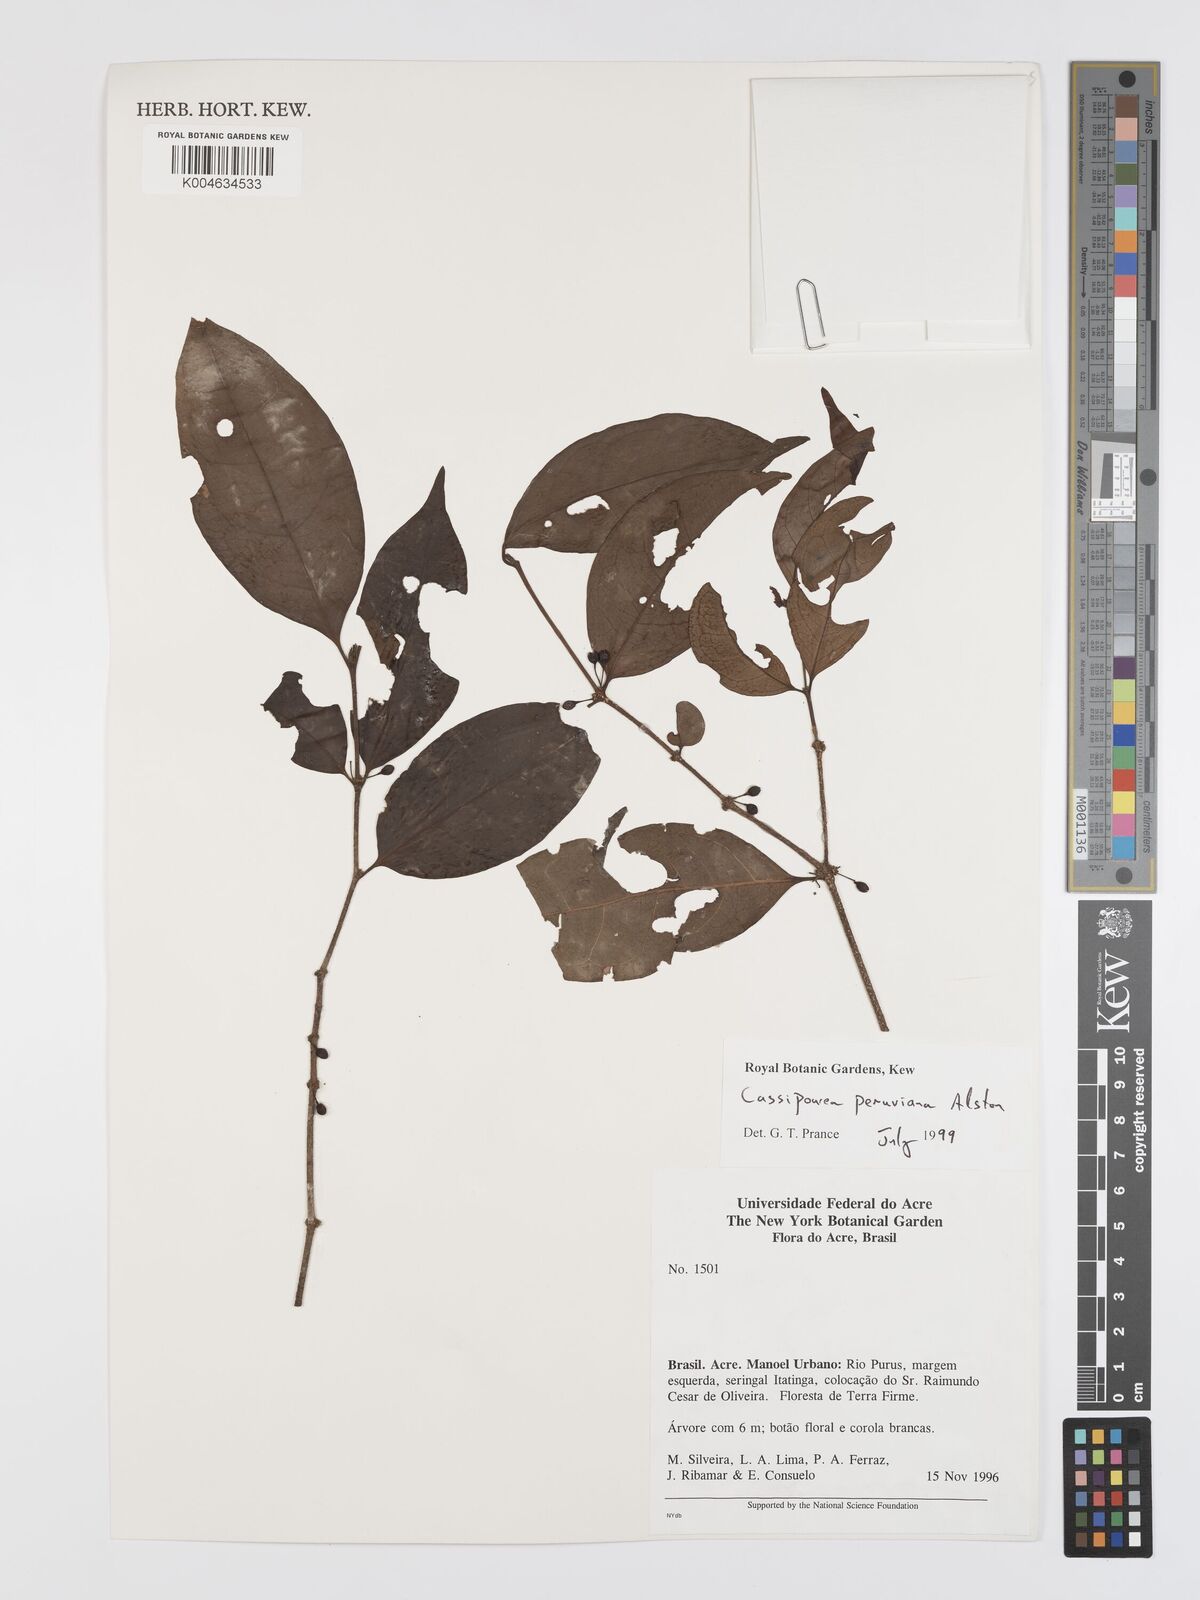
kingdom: Plantae
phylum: Tracheophyta
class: Magnoliopsida
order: Malpighiales
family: Rhizophoraceae
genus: Cassipourea
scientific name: Cassipourea peruviana
